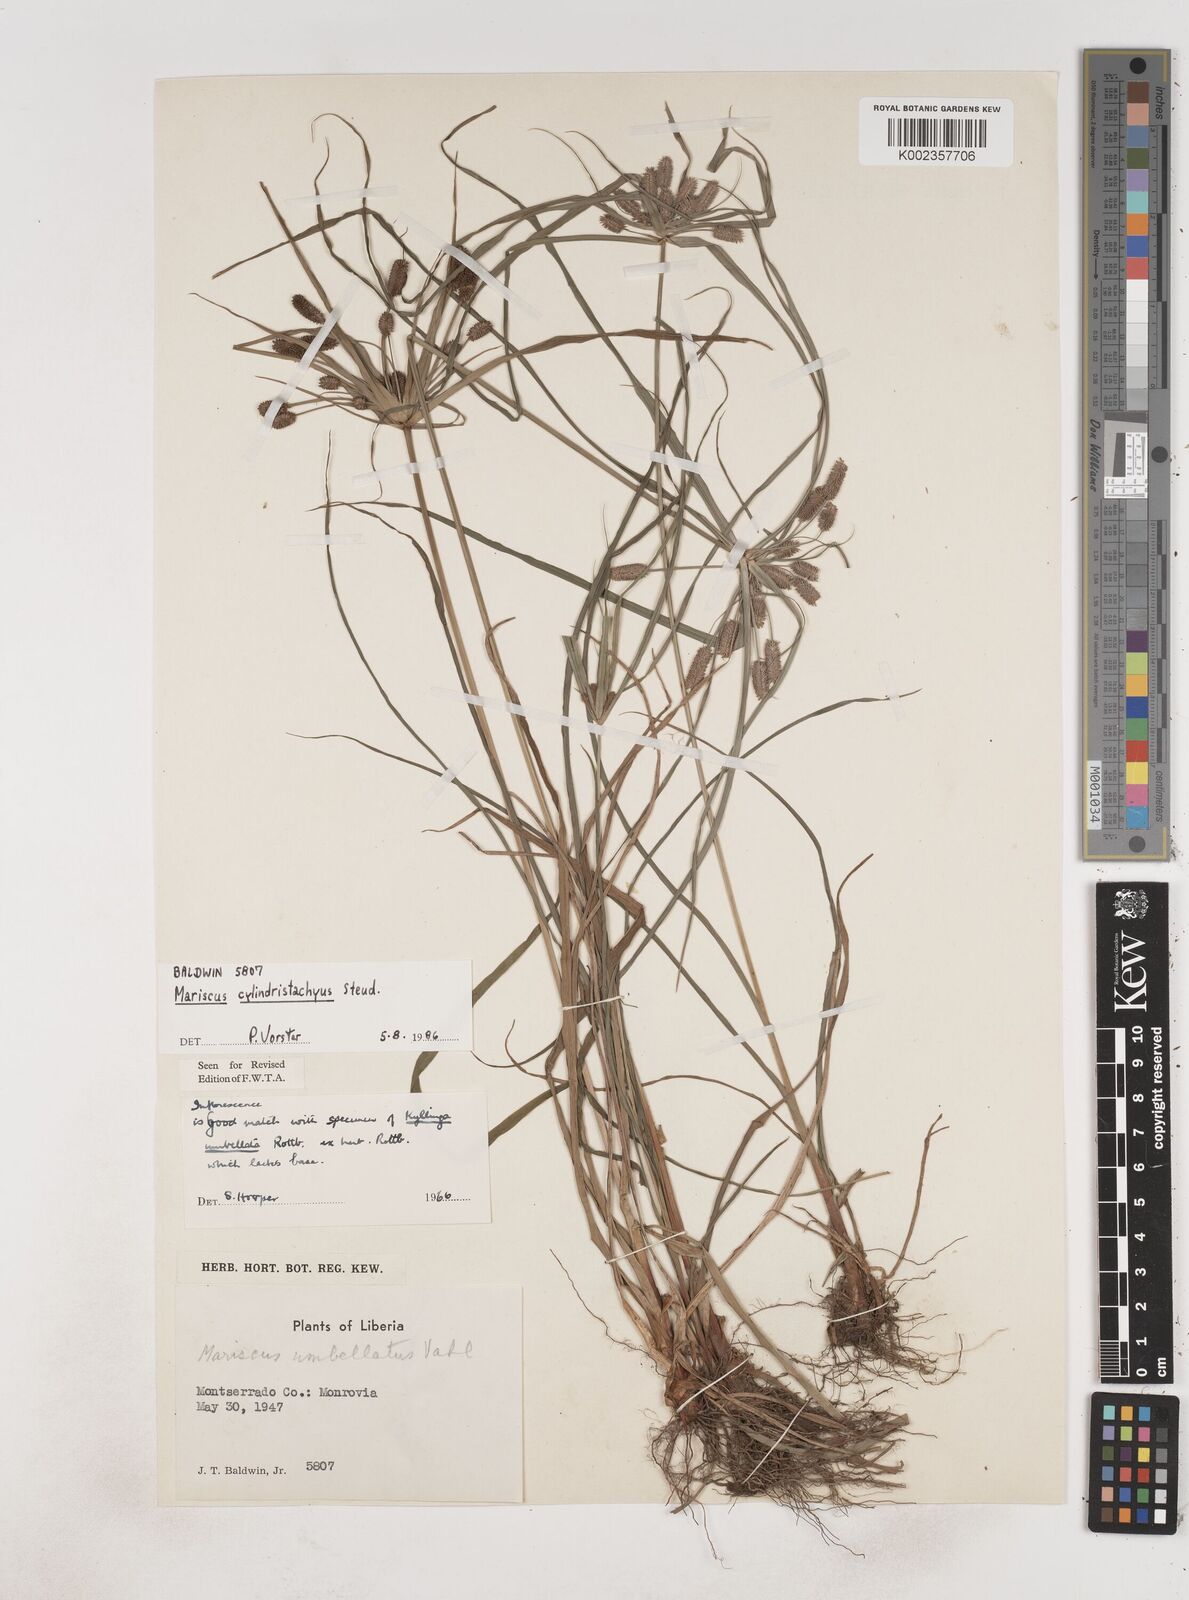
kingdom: Plantae
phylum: Tracheophyta
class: Liliopsida
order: Poales
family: Cyperaceae
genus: Cyperus
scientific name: Cyperus sublimis
